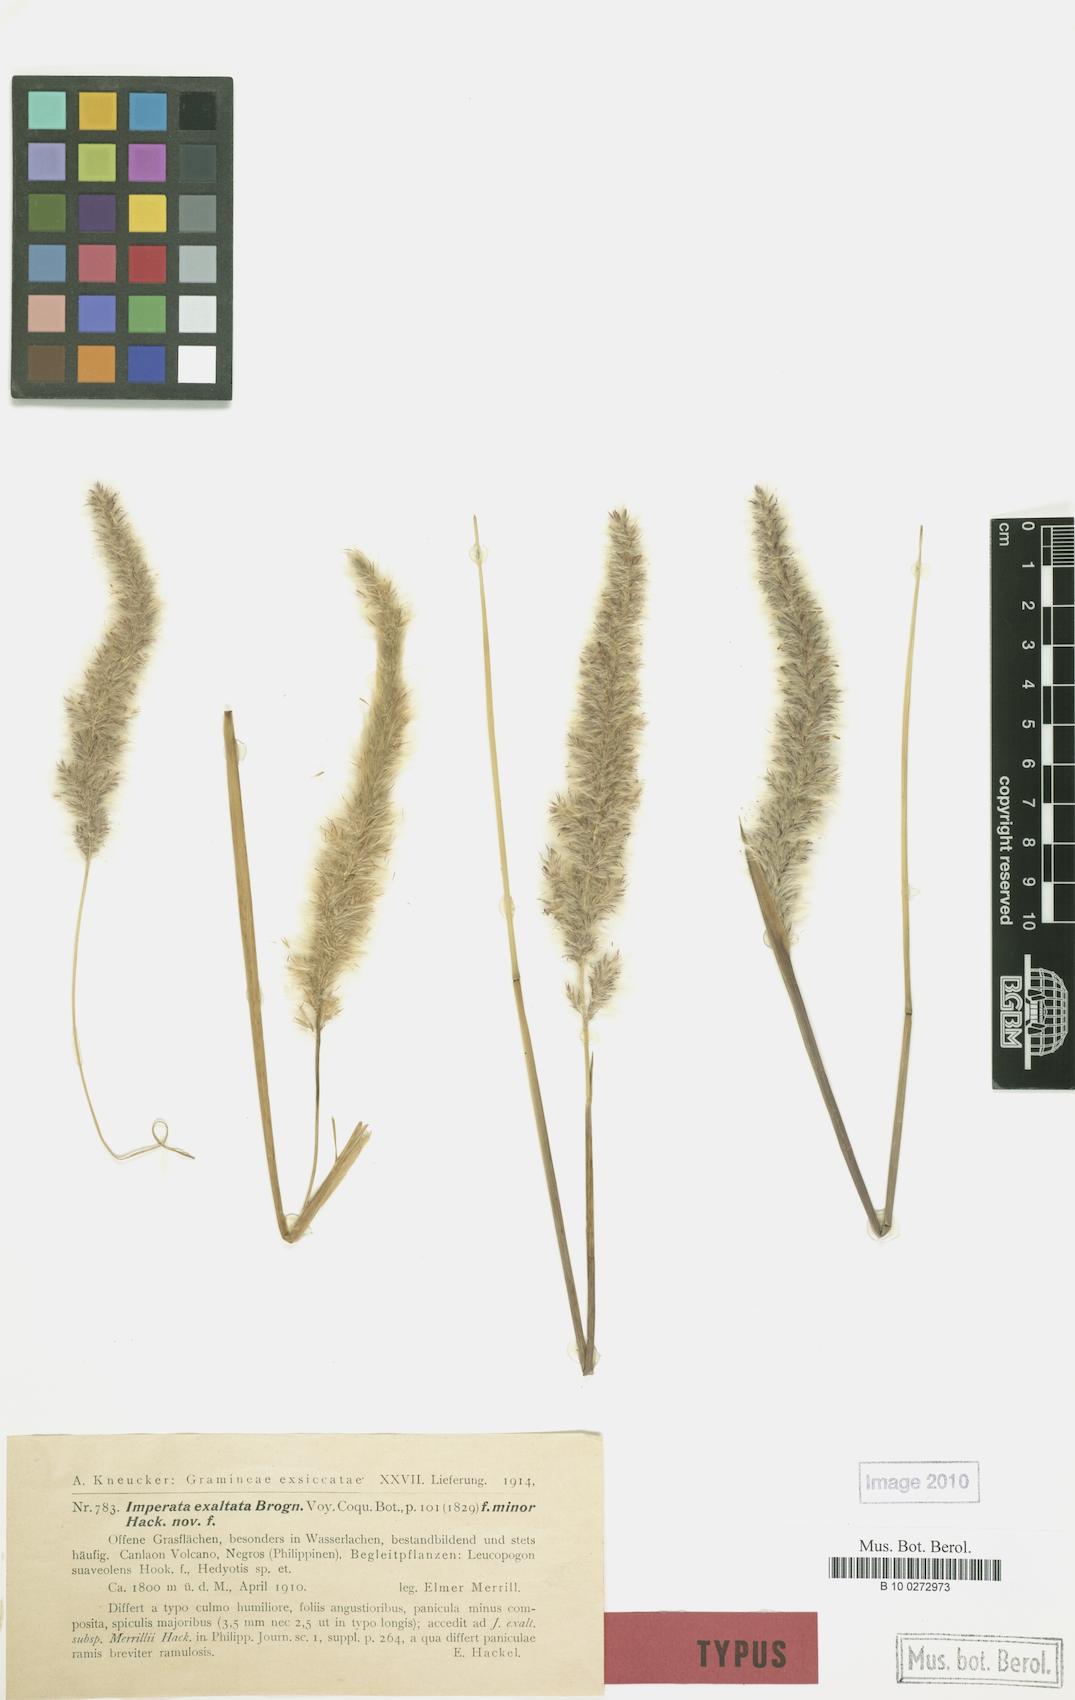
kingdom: Plantae
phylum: Tracheophyta
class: Liliopsida
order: Poales
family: Poaceae
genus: Tripidium
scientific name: Tripidium arundinaceum
